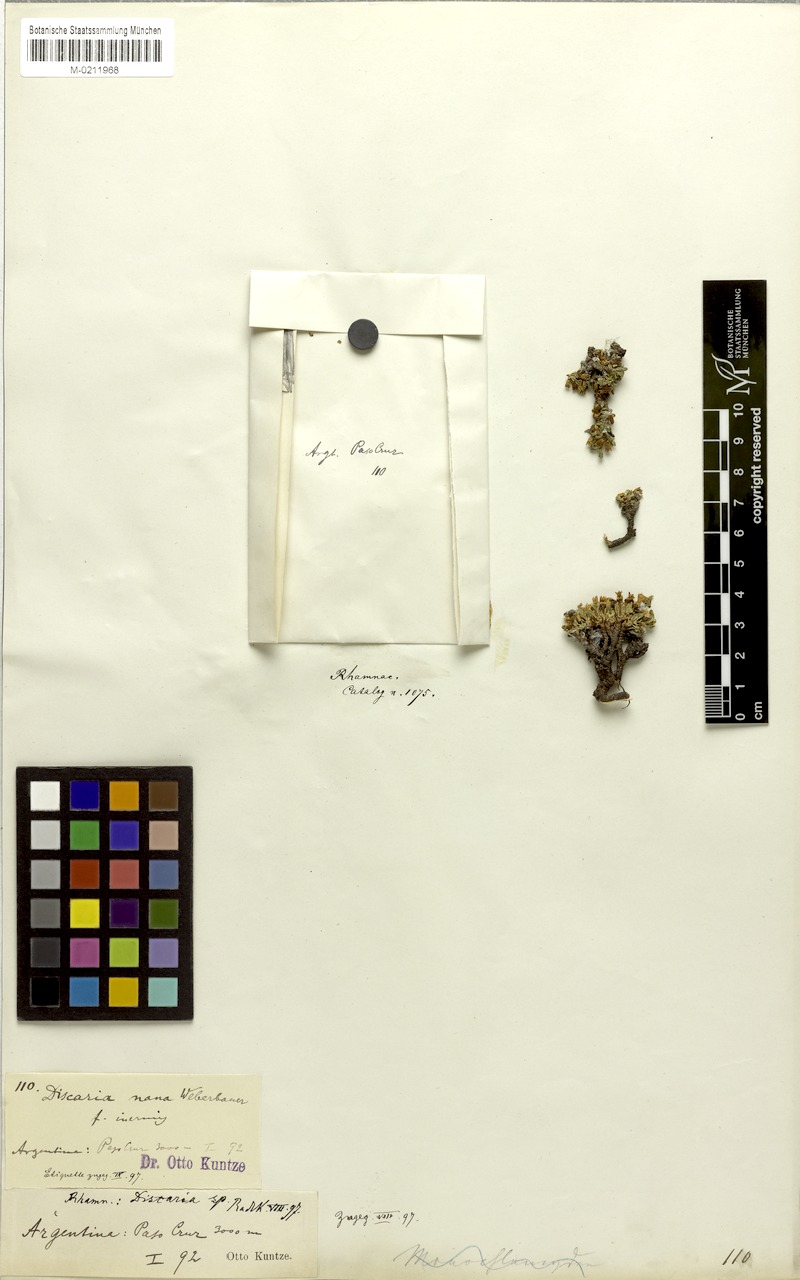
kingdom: Plantae
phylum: Tracheophyta
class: Magnoliopsida
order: Rosales
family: Rhamnaceae
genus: Discaria
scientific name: Discaria nana
